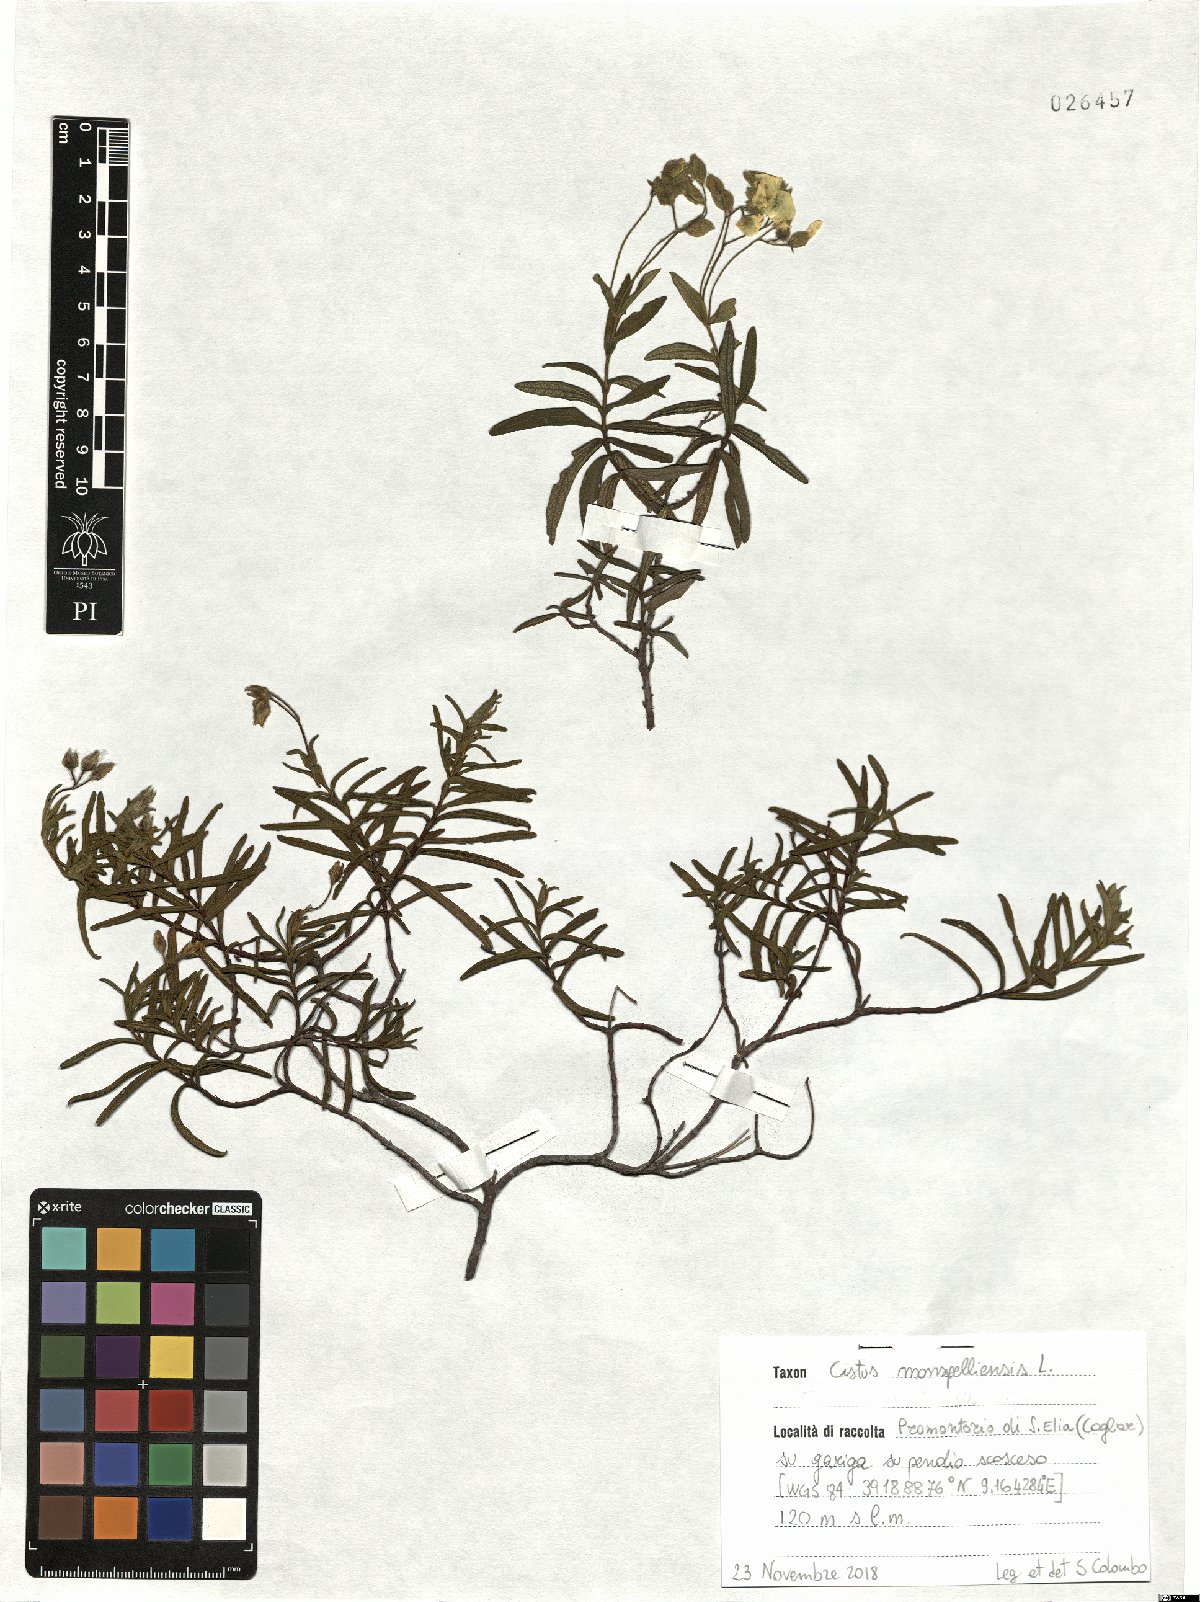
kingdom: Plantae
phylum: Tracheophyta
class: Magnoliopsida
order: Malvales
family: Cistaceae
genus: Cistus
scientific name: Cistus monspeliensis
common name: Montpelier cistus
